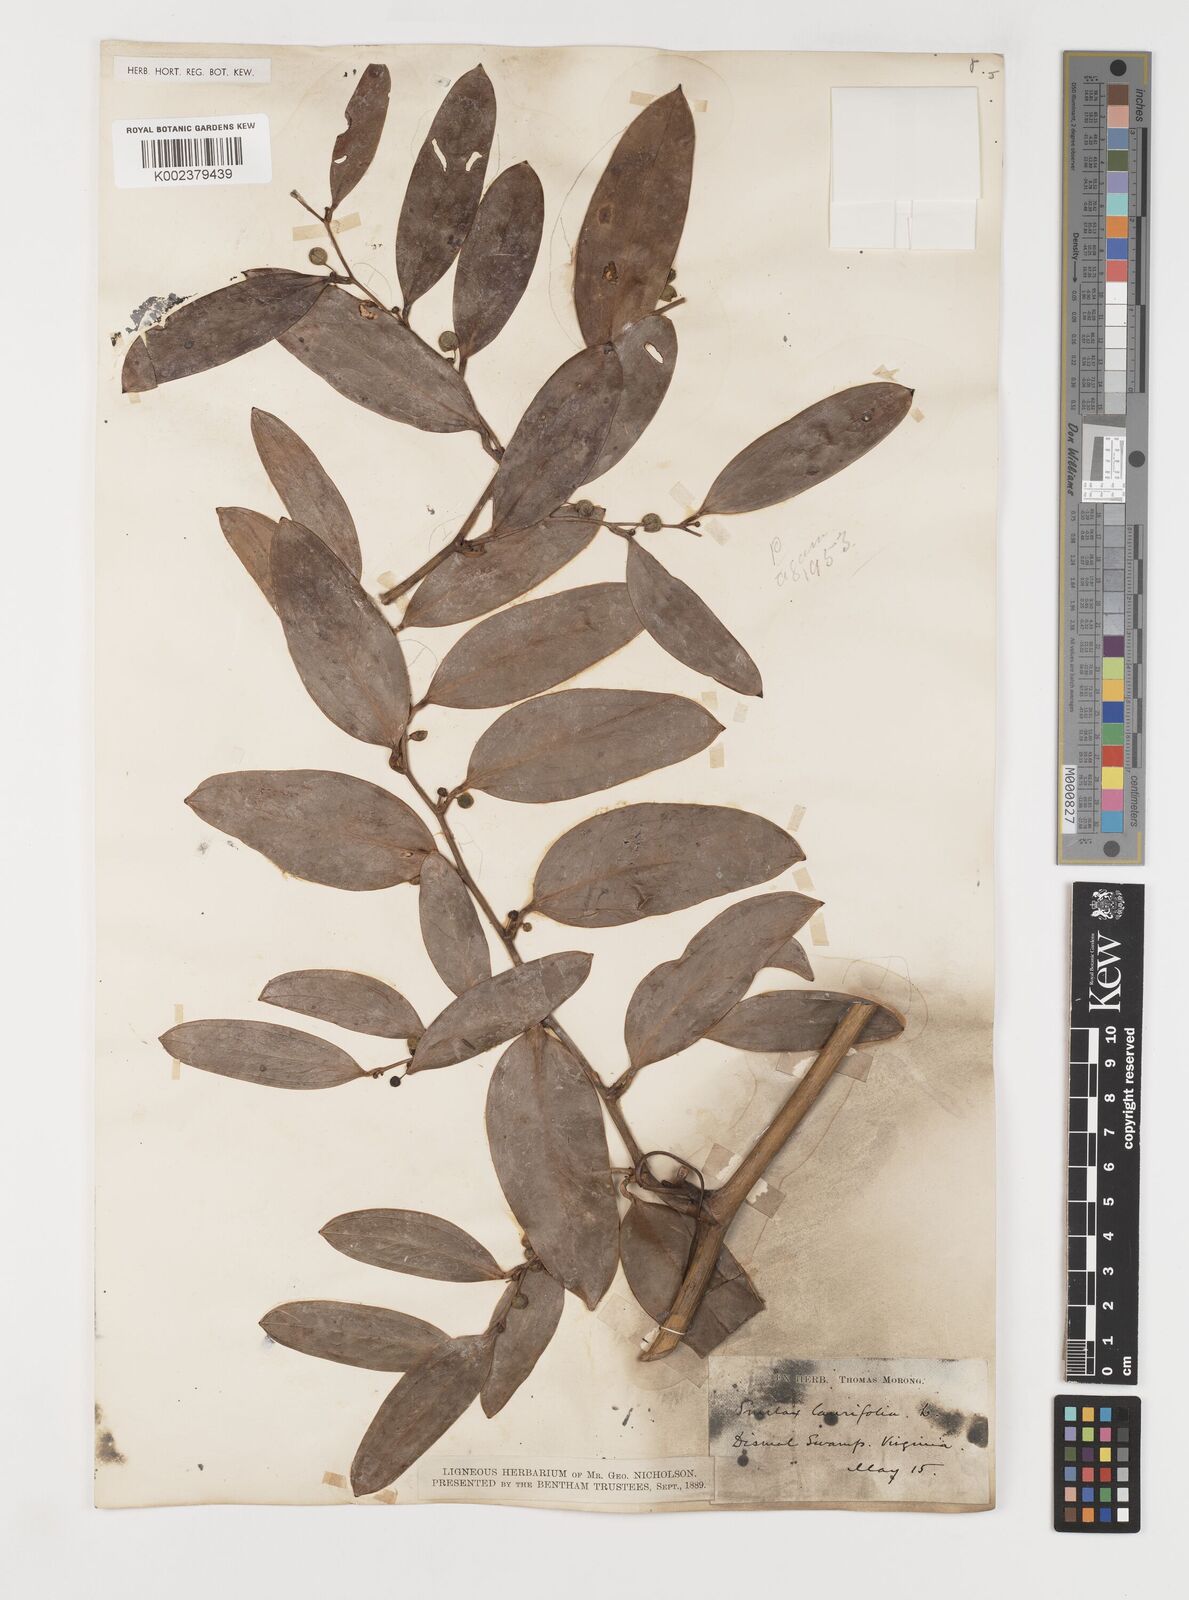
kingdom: Plantae
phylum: Tracheophyta
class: Liliopsida
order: Liliales
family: Smilacaceae
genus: Smilax
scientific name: Smilax laurifolia
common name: Bamboovine
